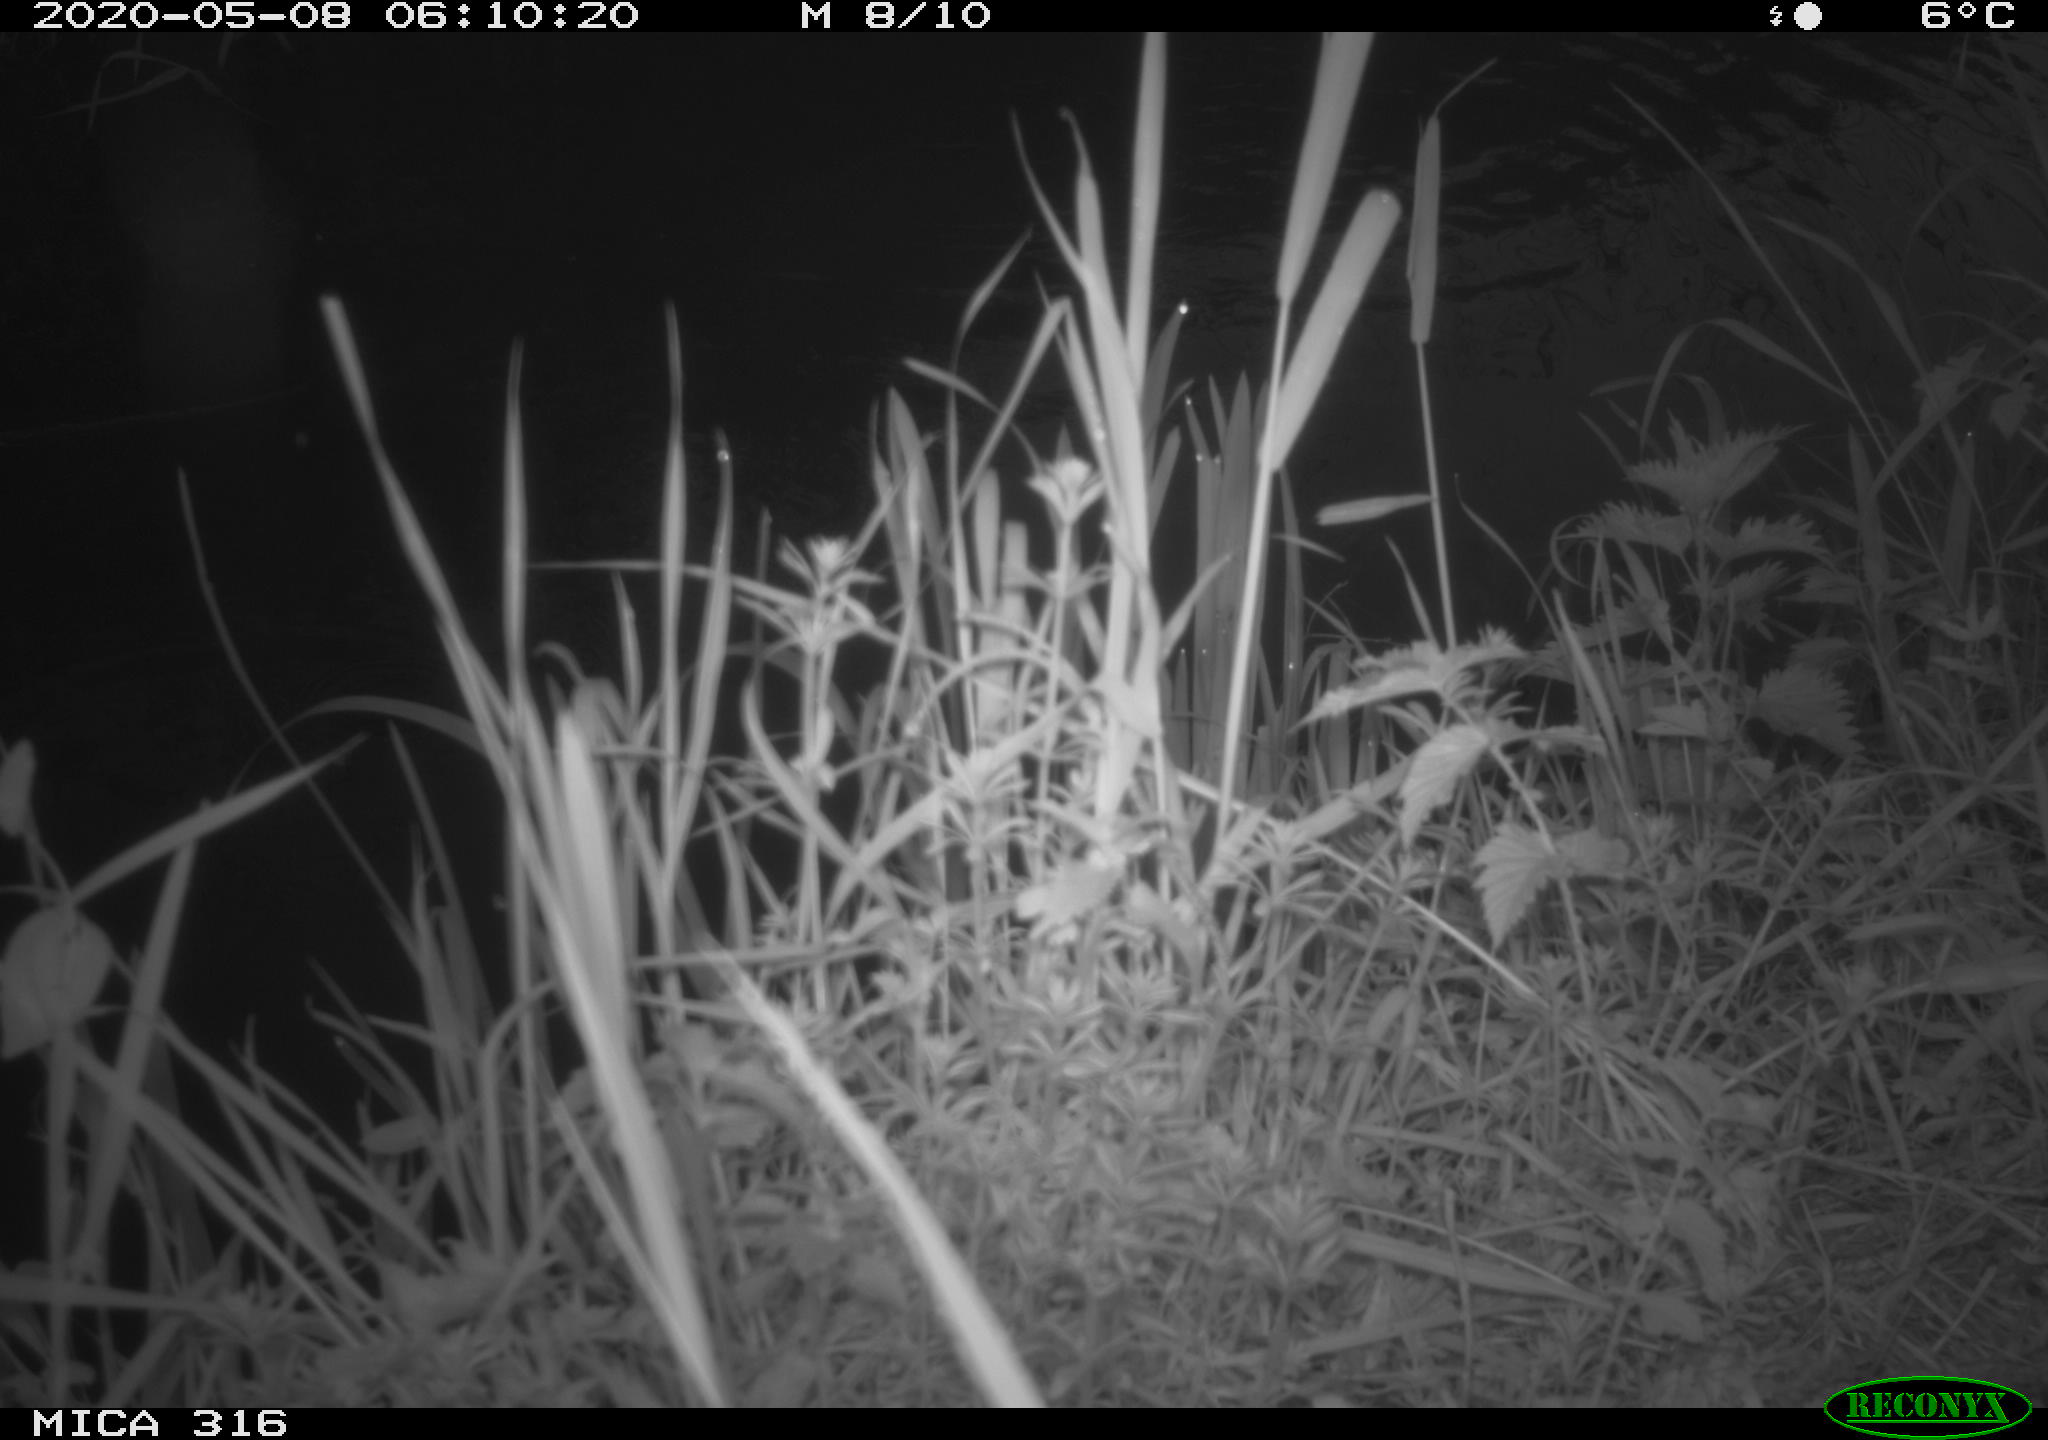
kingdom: Animalia
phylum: Chordata
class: Aves
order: Anseriformes
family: Anatidae
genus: Anas
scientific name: Anas platyrhynchos
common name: Mallard
